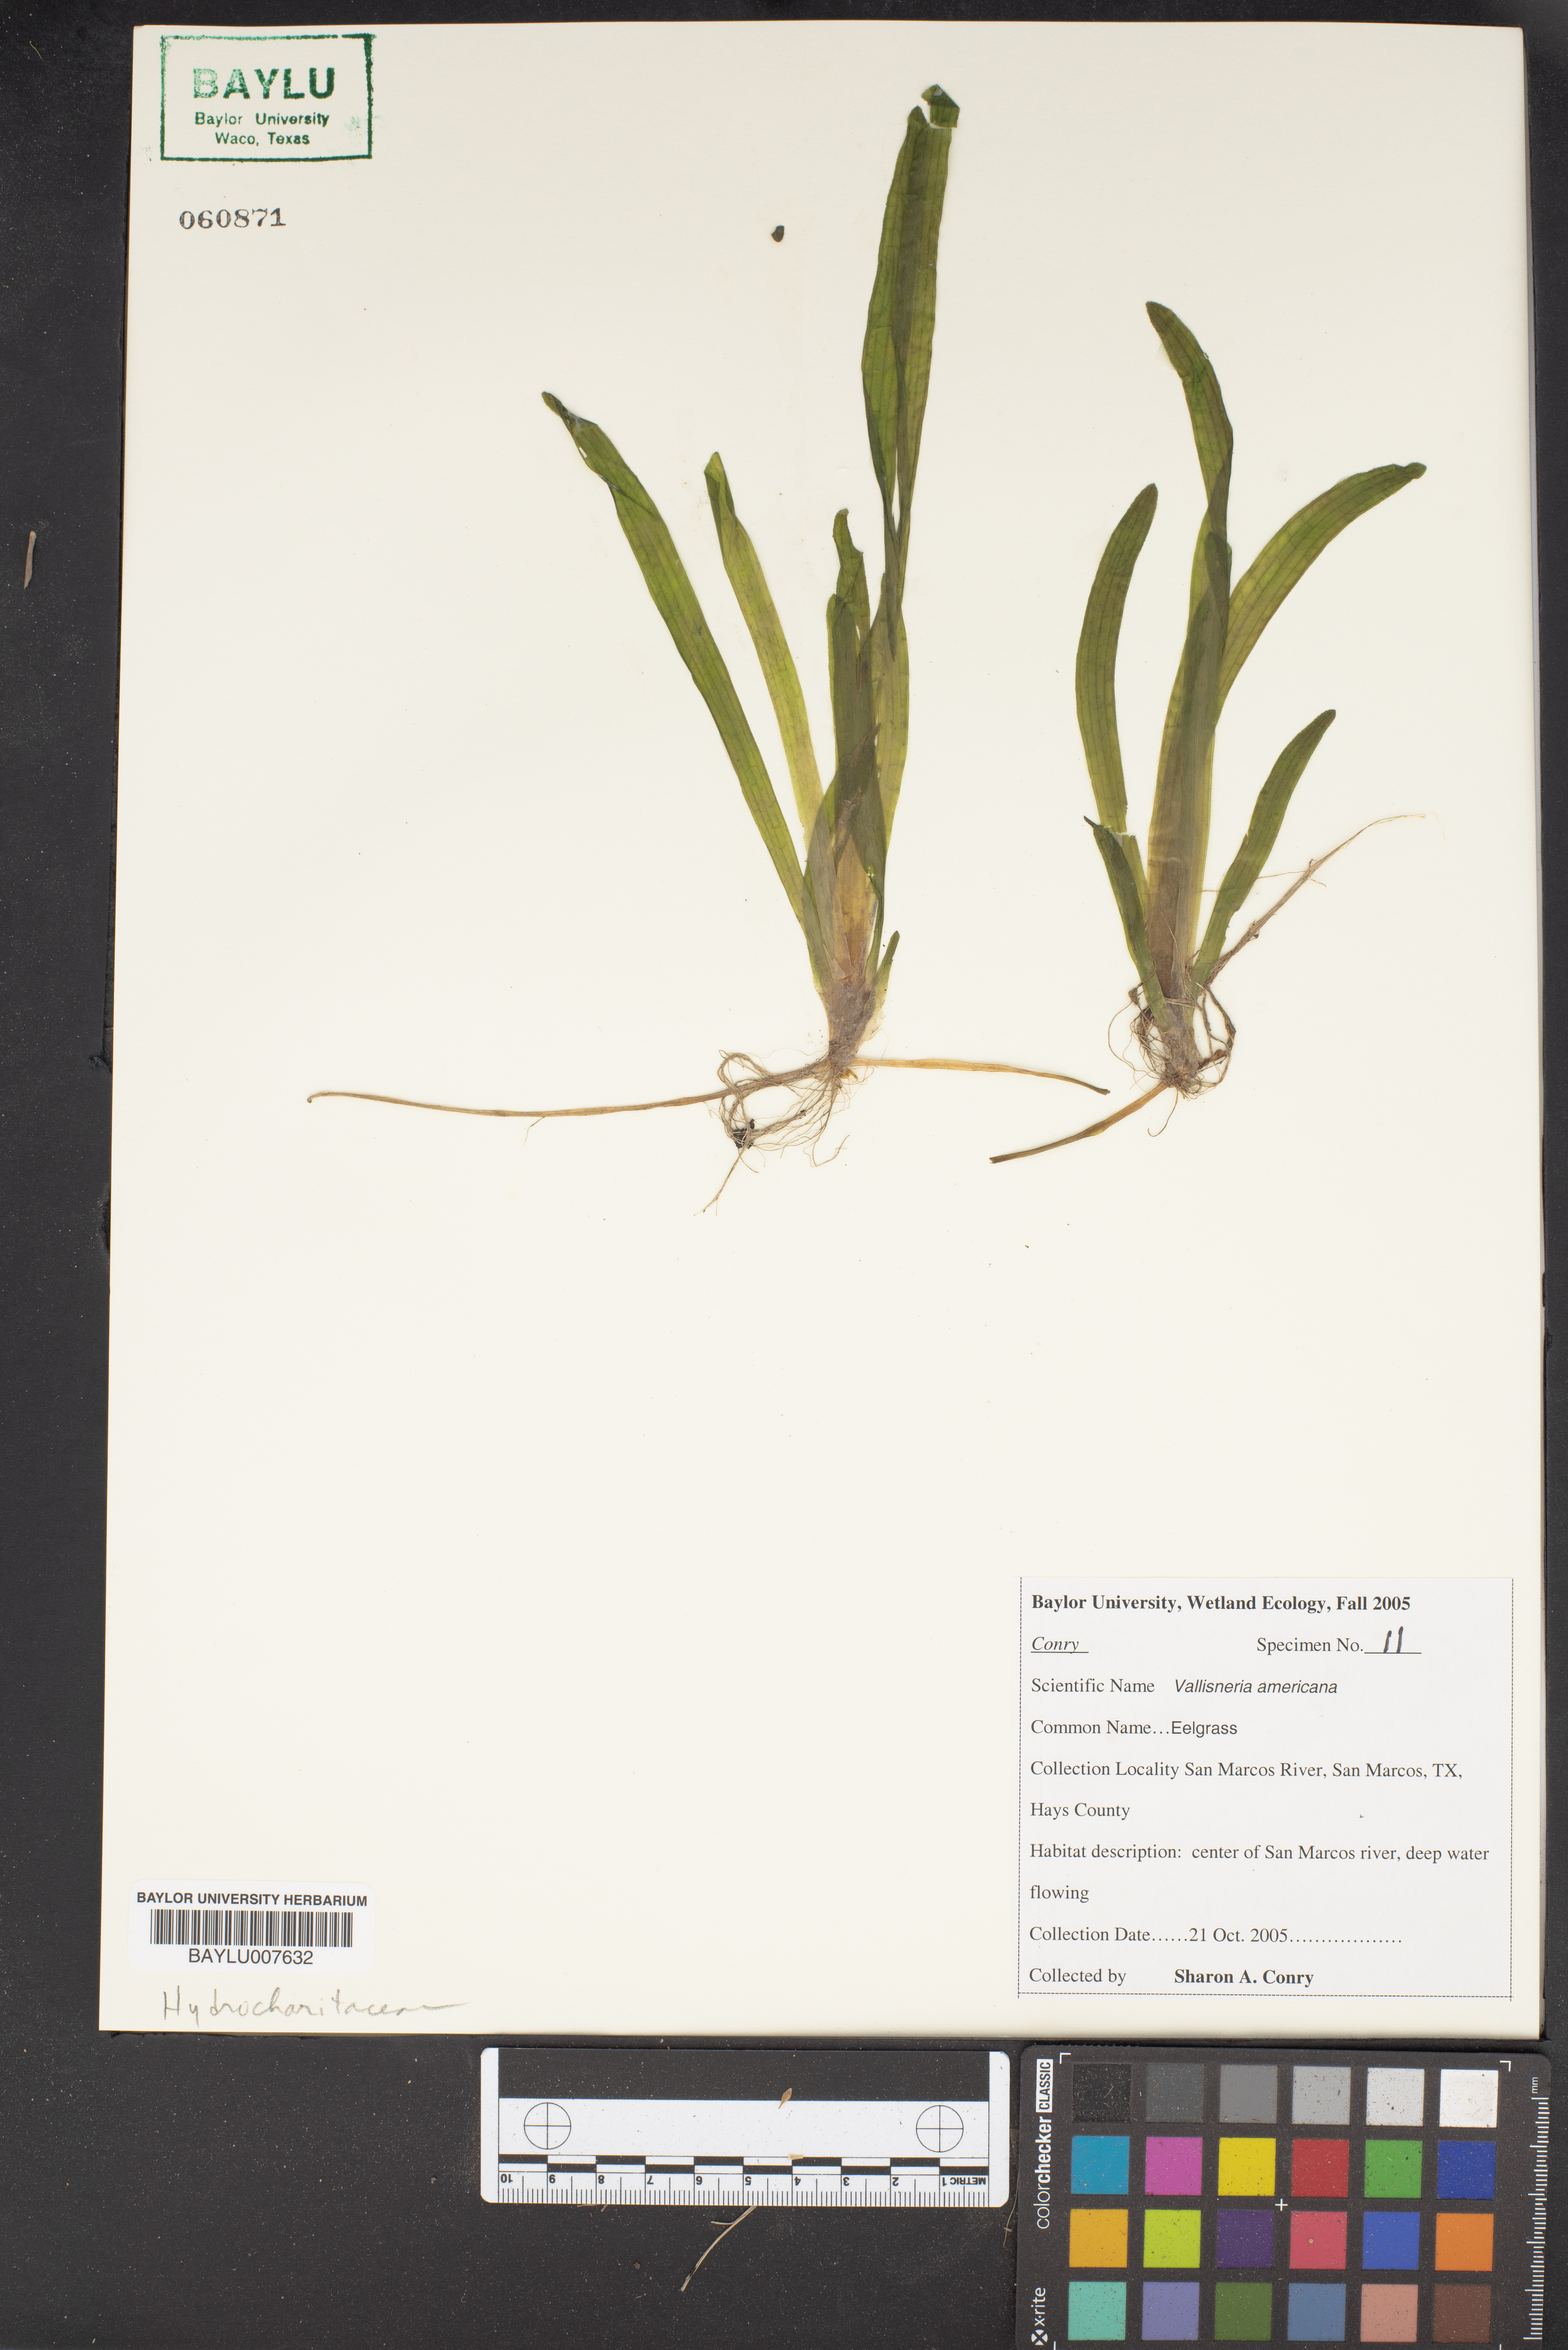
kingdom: Plantae
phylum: Tracheophyta
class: Liliopsida
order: Alismatales
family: Hydrocharitaceae
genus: Vallisneria
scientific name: Vallisneria americana
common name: American eelgrass
